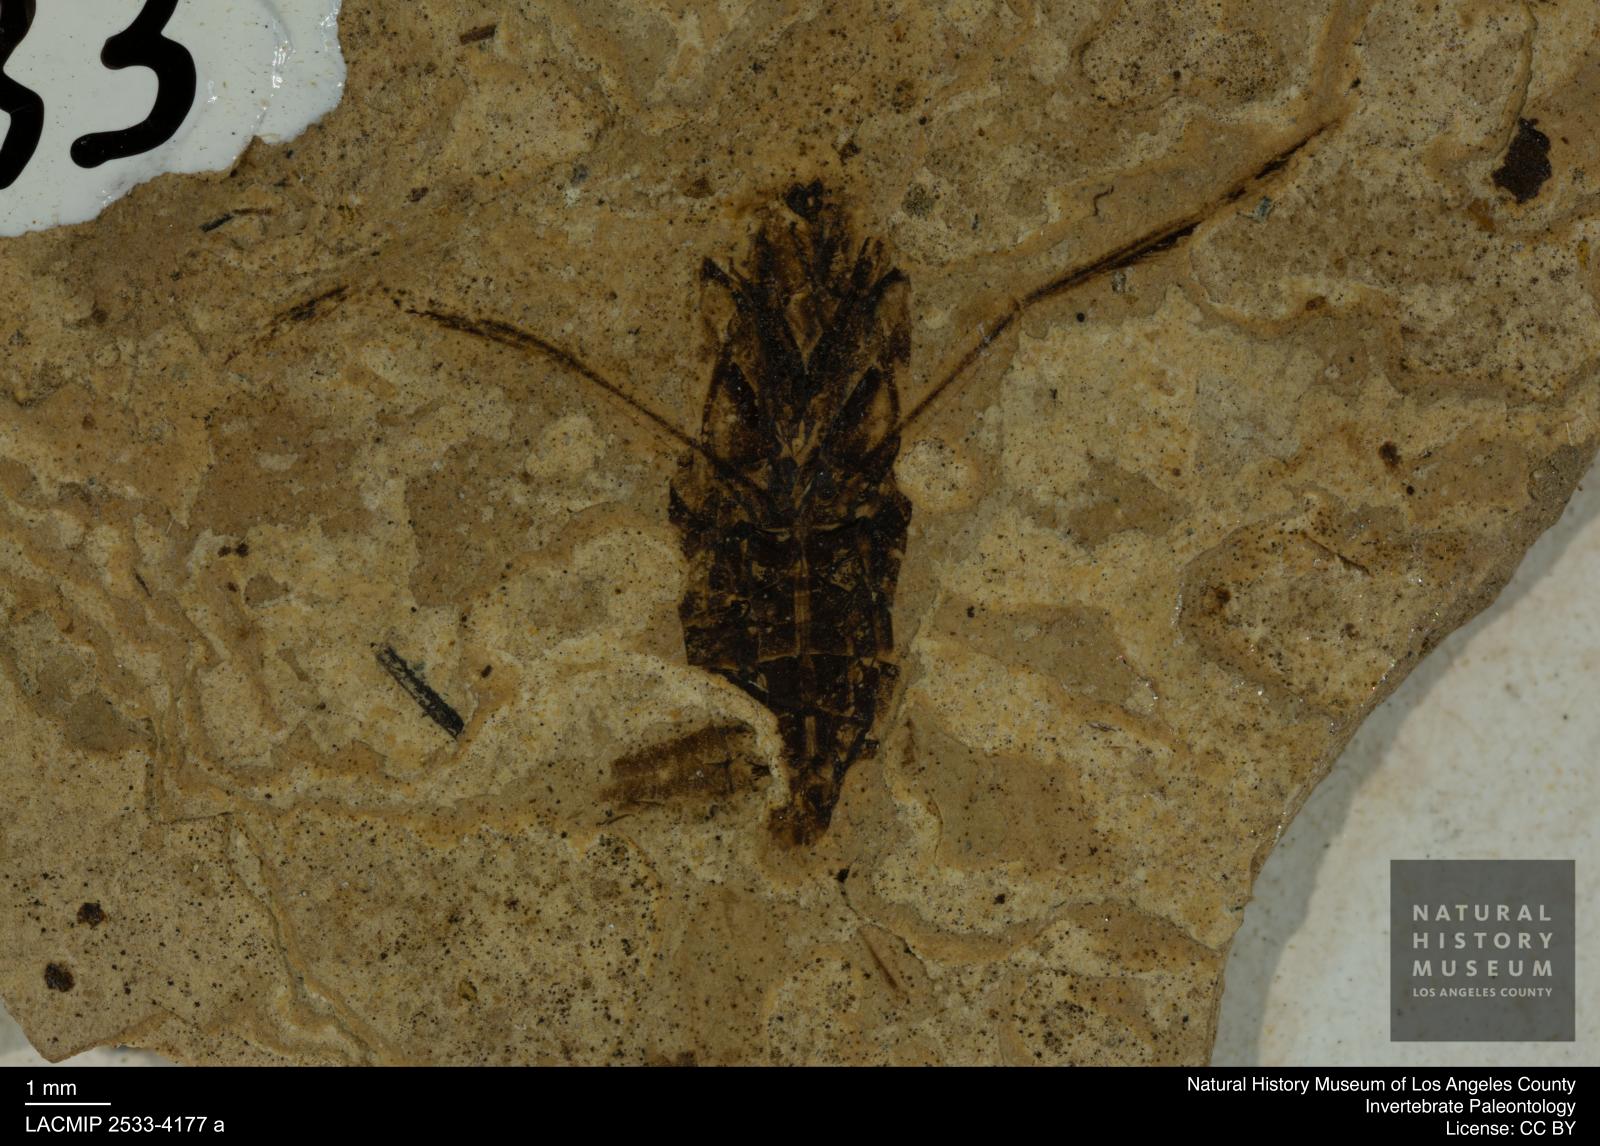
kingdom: Animalia
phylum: Arthropoda
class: Insecta
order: Hemiptera
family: Notonectidae
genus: Anisops
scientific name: Anisops Notonecta deichmuelleri
